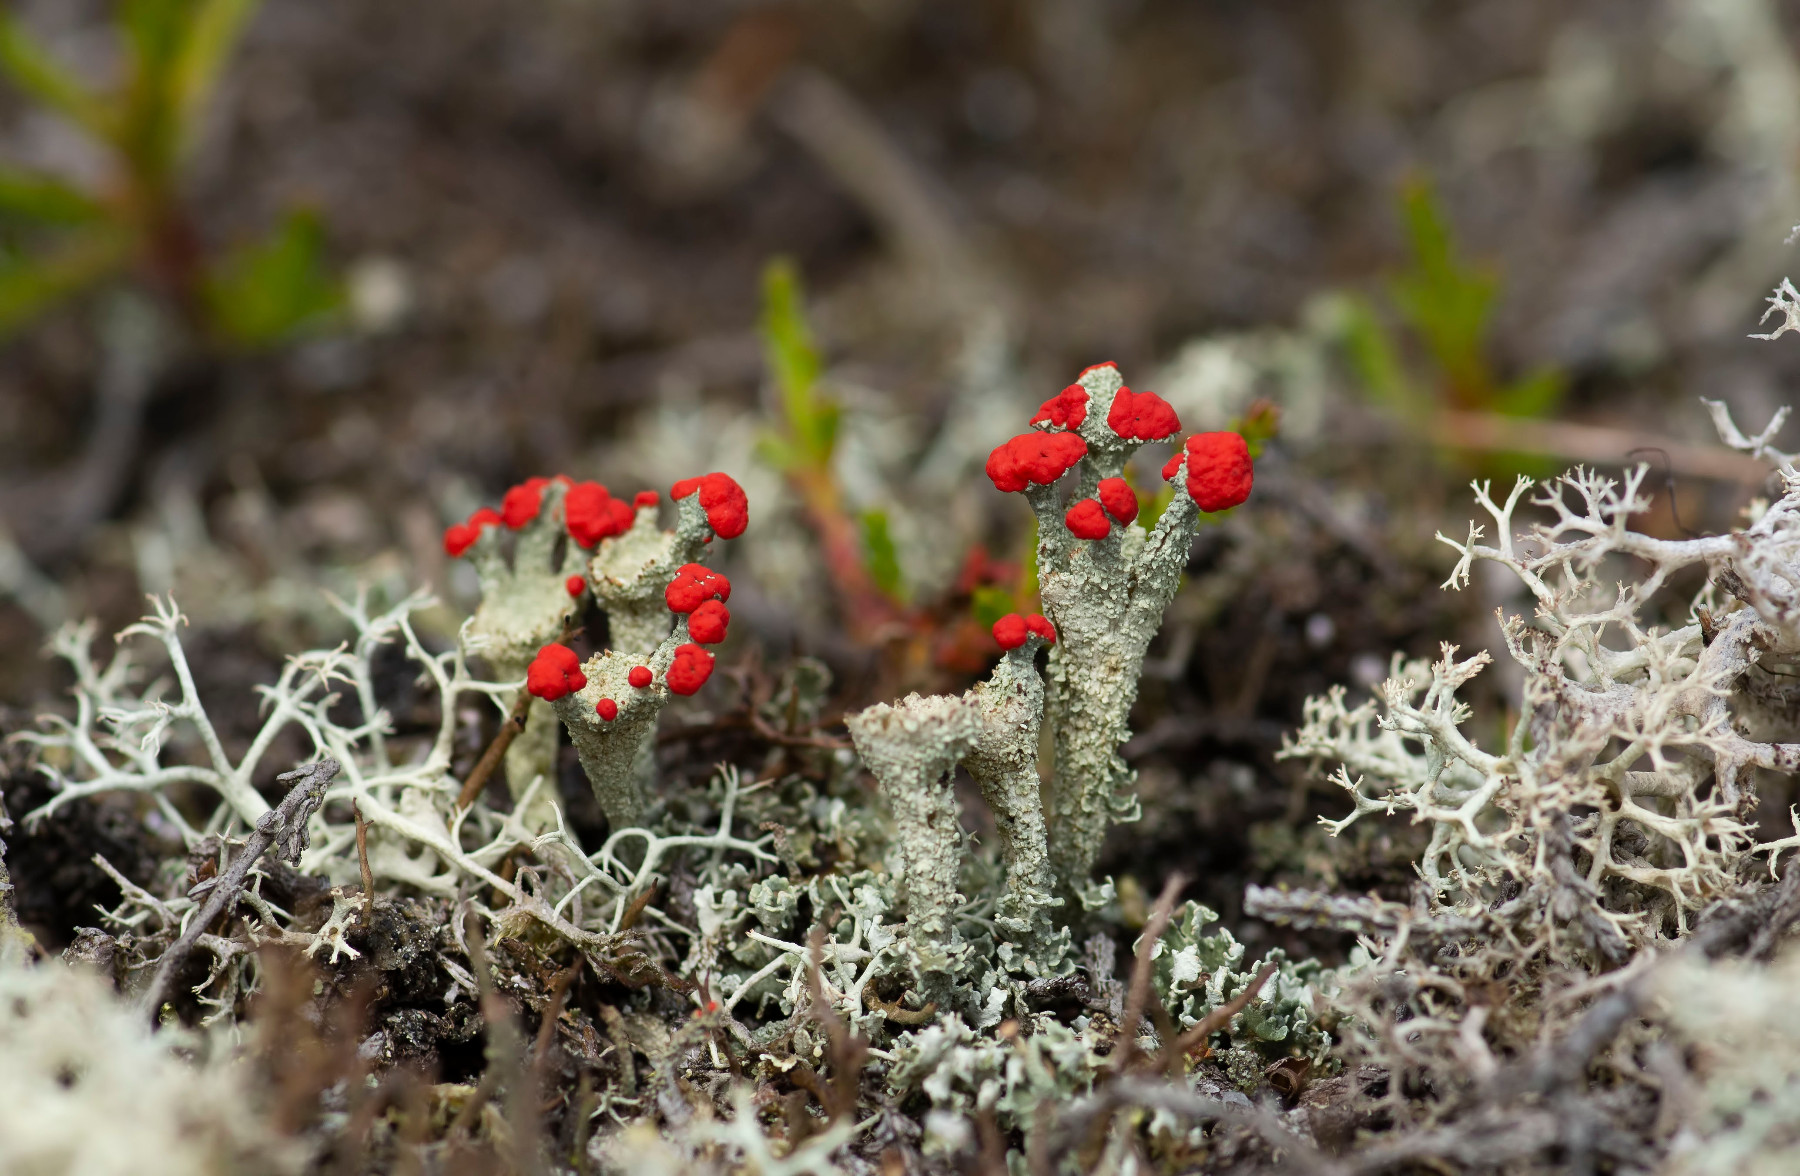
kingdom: Fungi
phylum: Ascomycota
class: Lecanoromycetes
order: Lecanorales
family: Cladoniaceae
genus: Cladonia
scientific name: Cladonia diversa
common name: rød bægerlav
